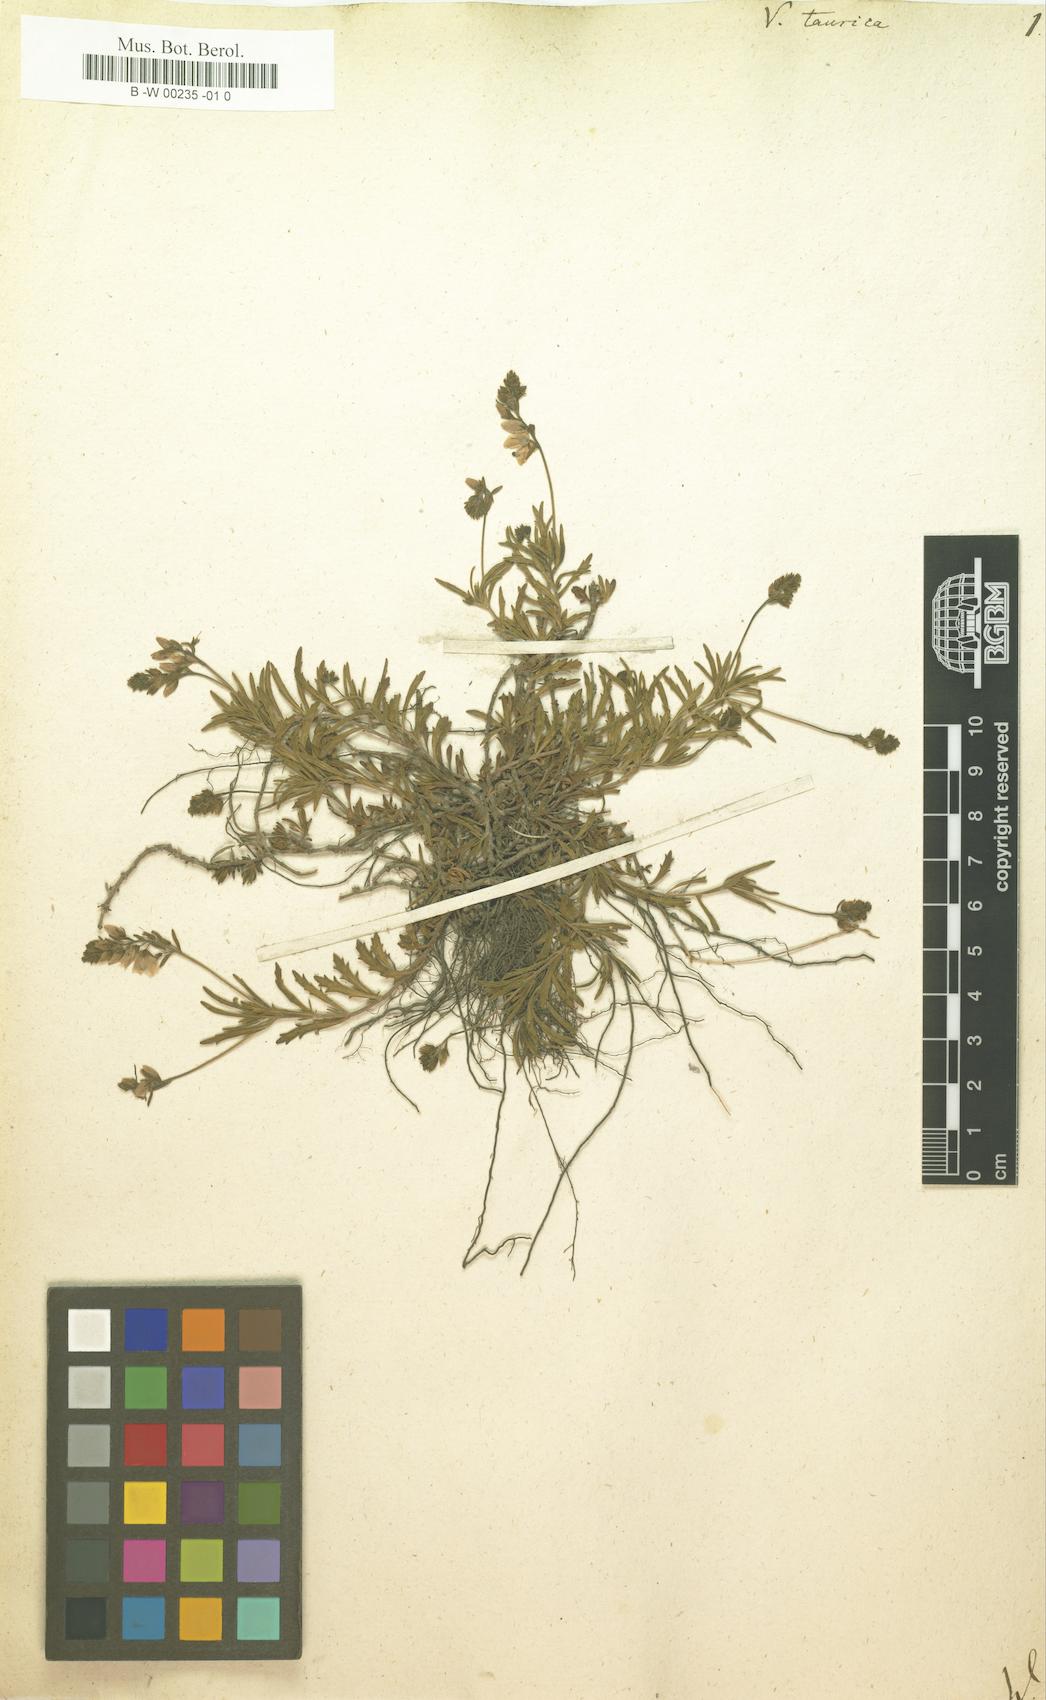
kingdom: Plantae
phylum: Tracheophyta
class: Magnoliopsida
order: Lamiales
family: Plantaginaceae
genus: Veronica
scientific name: Veronica taurica
